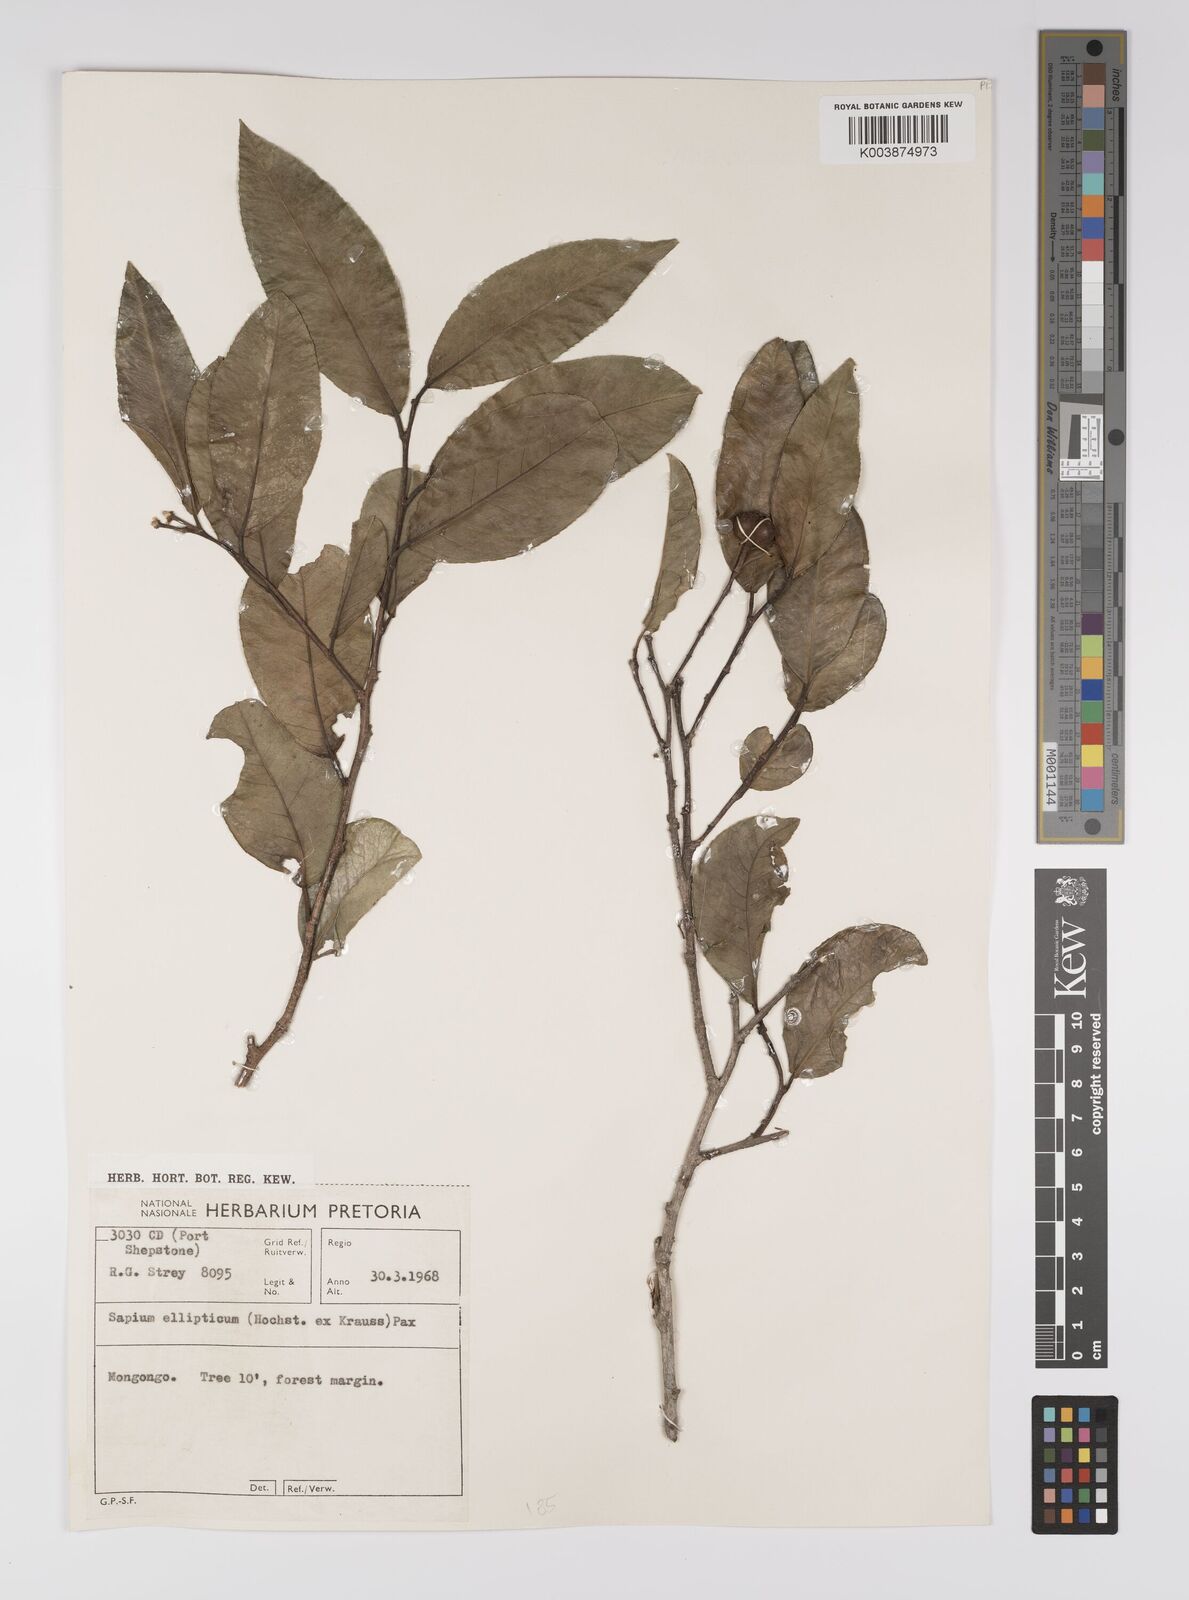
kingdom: Plantae
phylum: Tracheophyta
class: Magnoliopsida
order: Malpighiales
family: Euphorbiaceae
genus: Shirakiopsis
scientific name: Shirakiopsis elliptica
